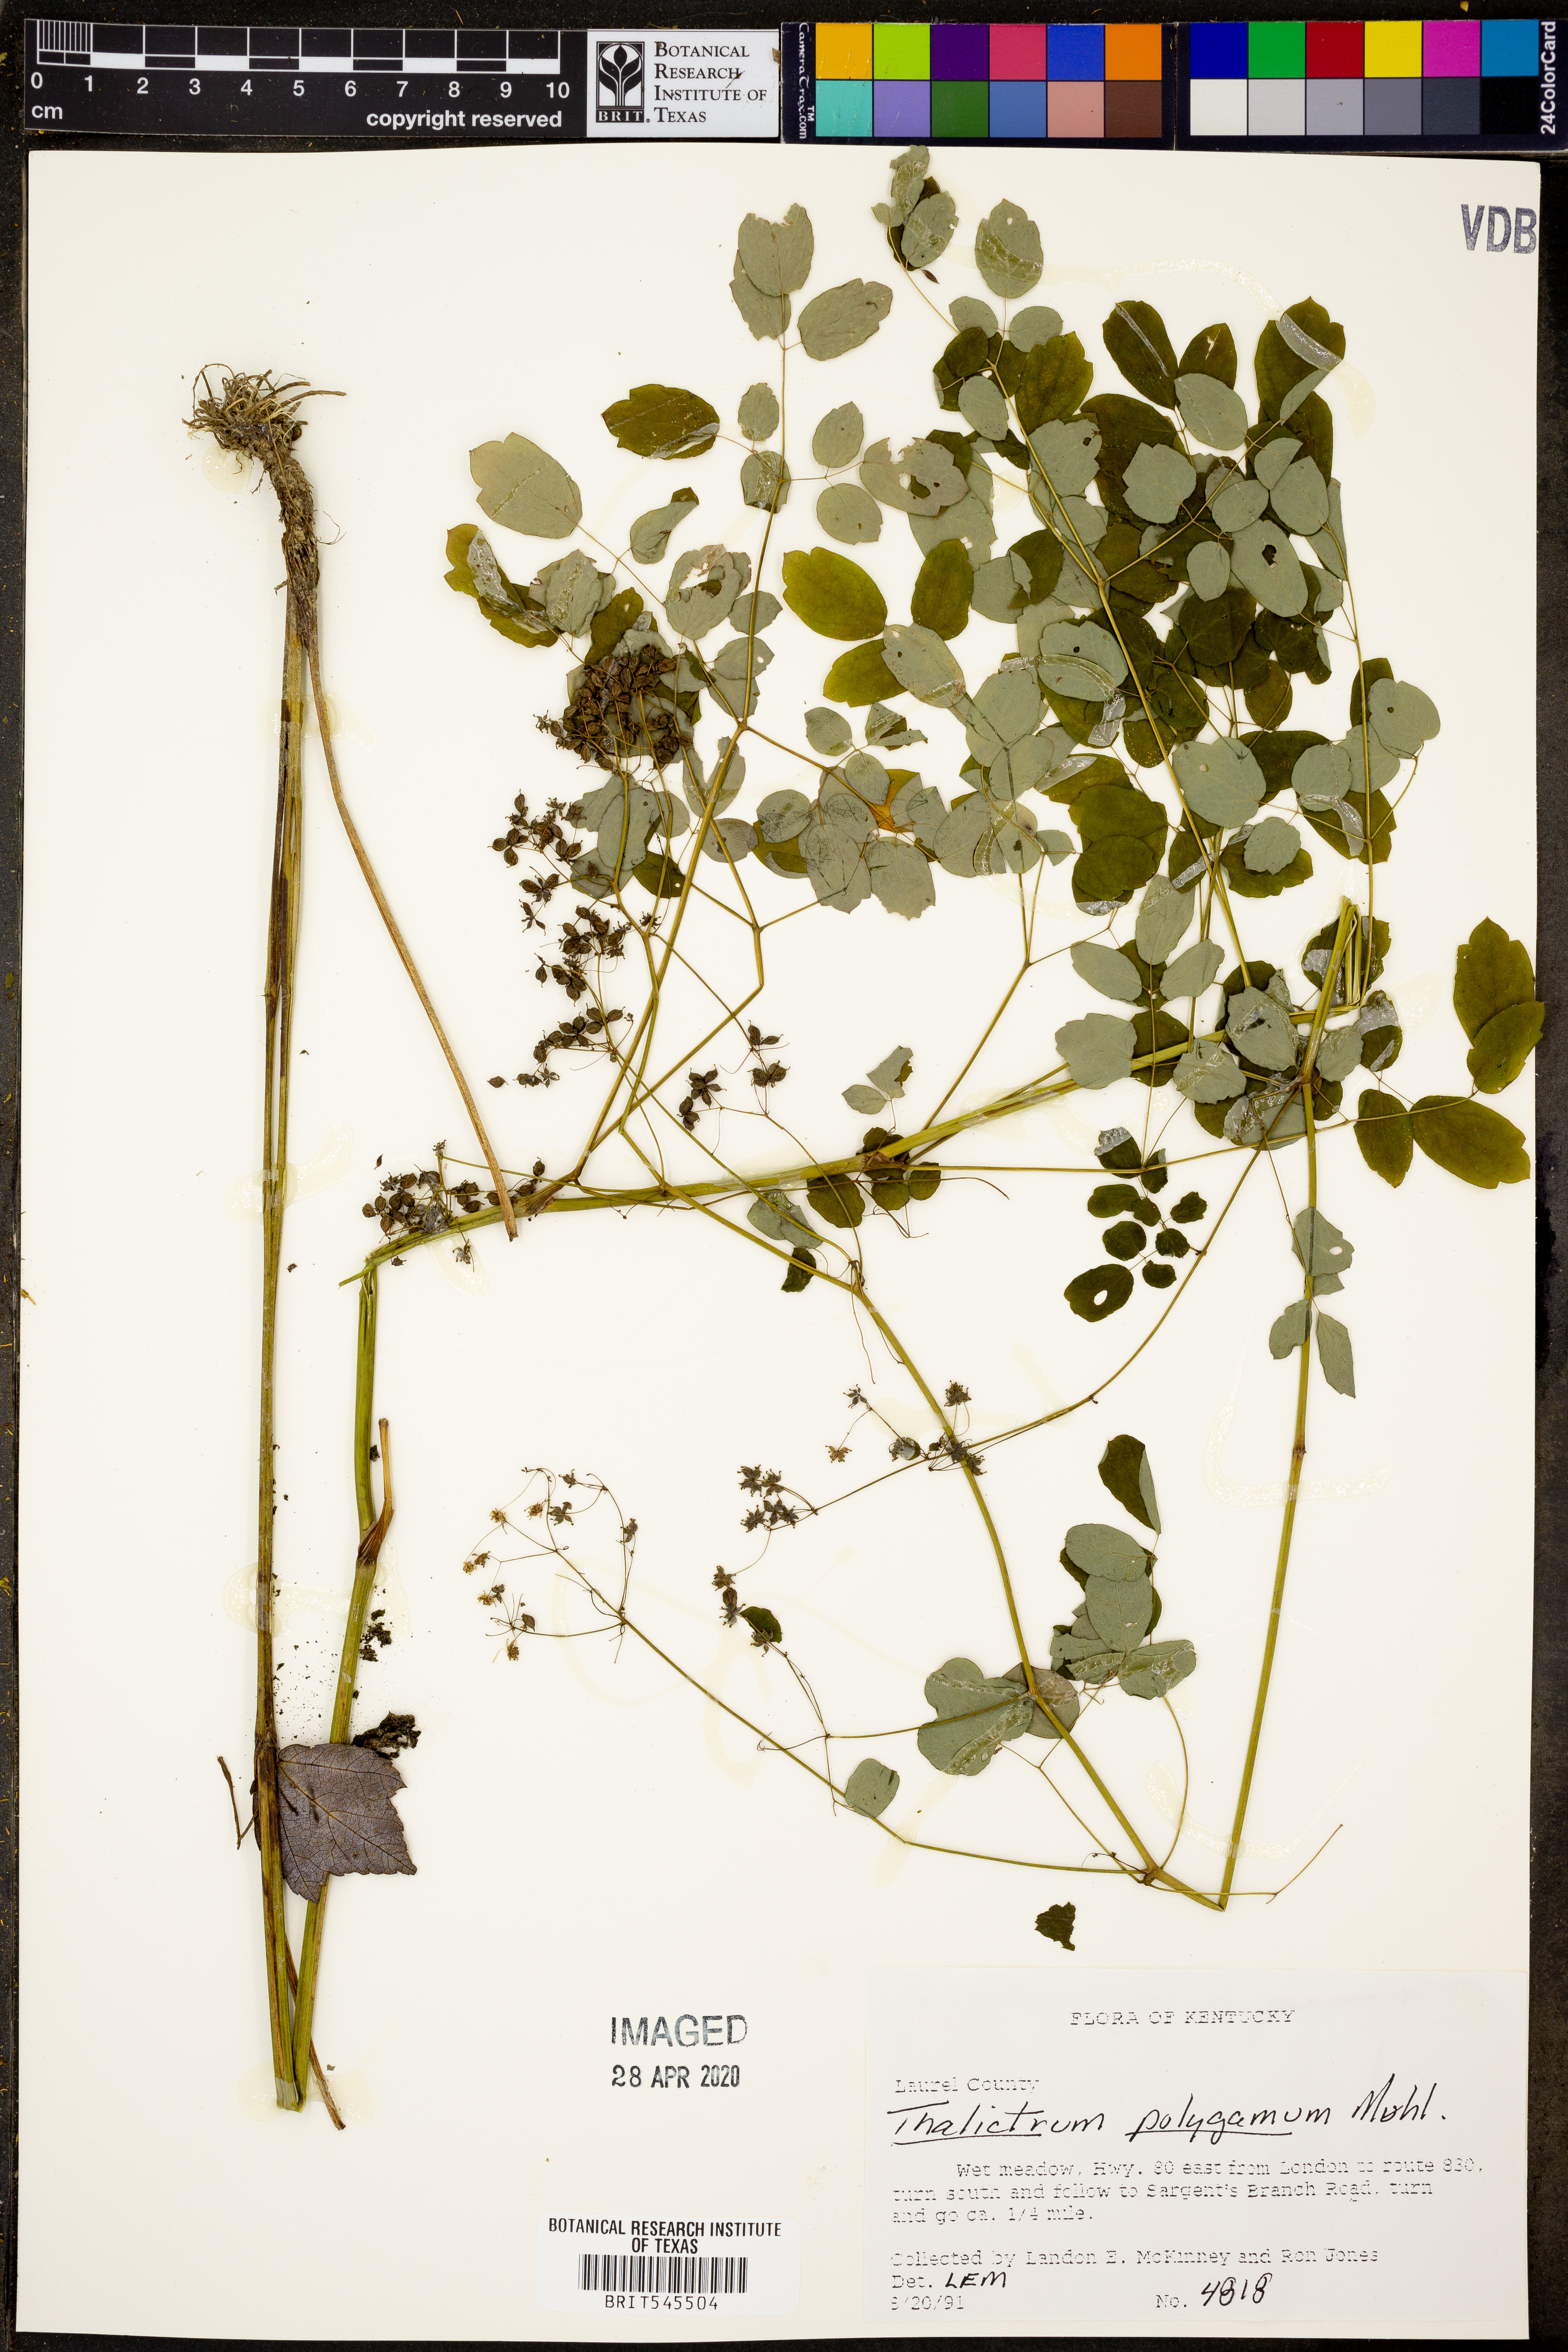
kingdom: Plantae
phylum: Tracheophyta
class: Magnoliopsida
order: Ranunculales
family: Ranunculaceae
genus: Thalictrum
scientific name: Thalictrum pubescens
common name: King-of-the-meadow
